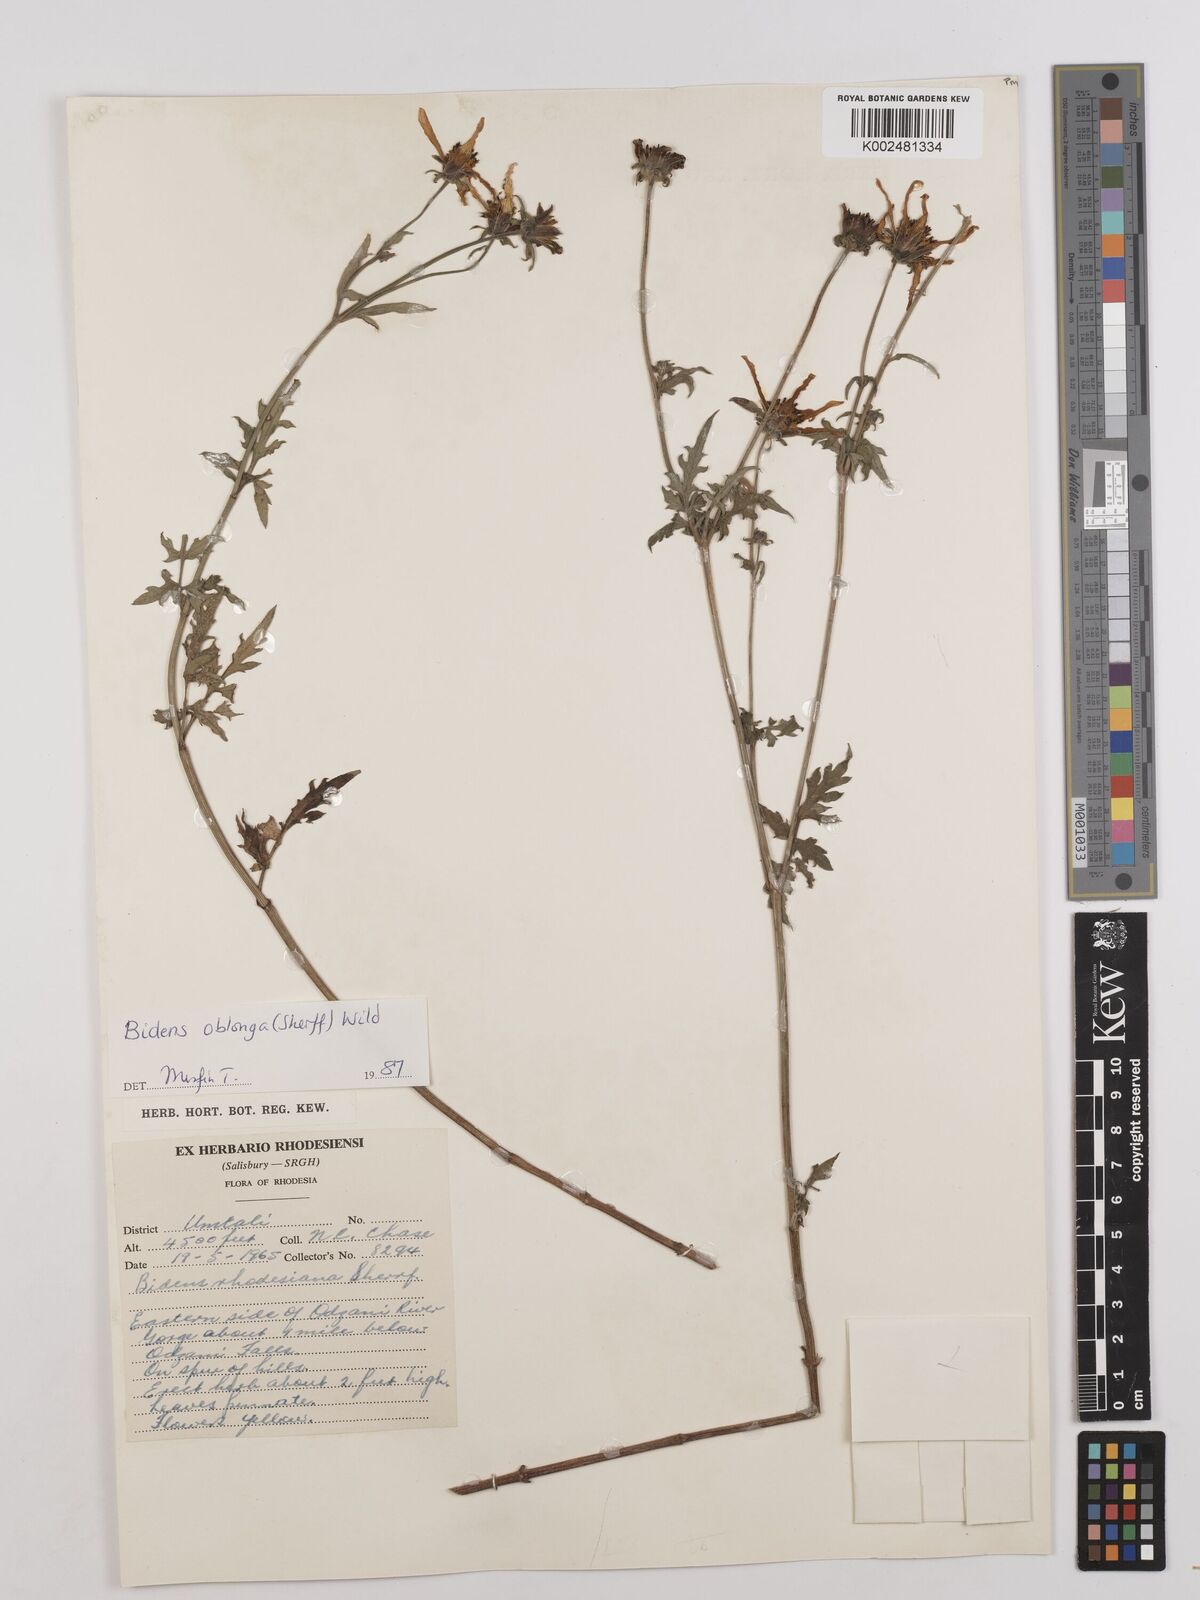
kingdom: Plantae
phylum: Tracheophyta
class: Magnoliopsida
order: Asterales
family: Asteraceae
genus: Bidens
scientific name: Bidens oblonga
